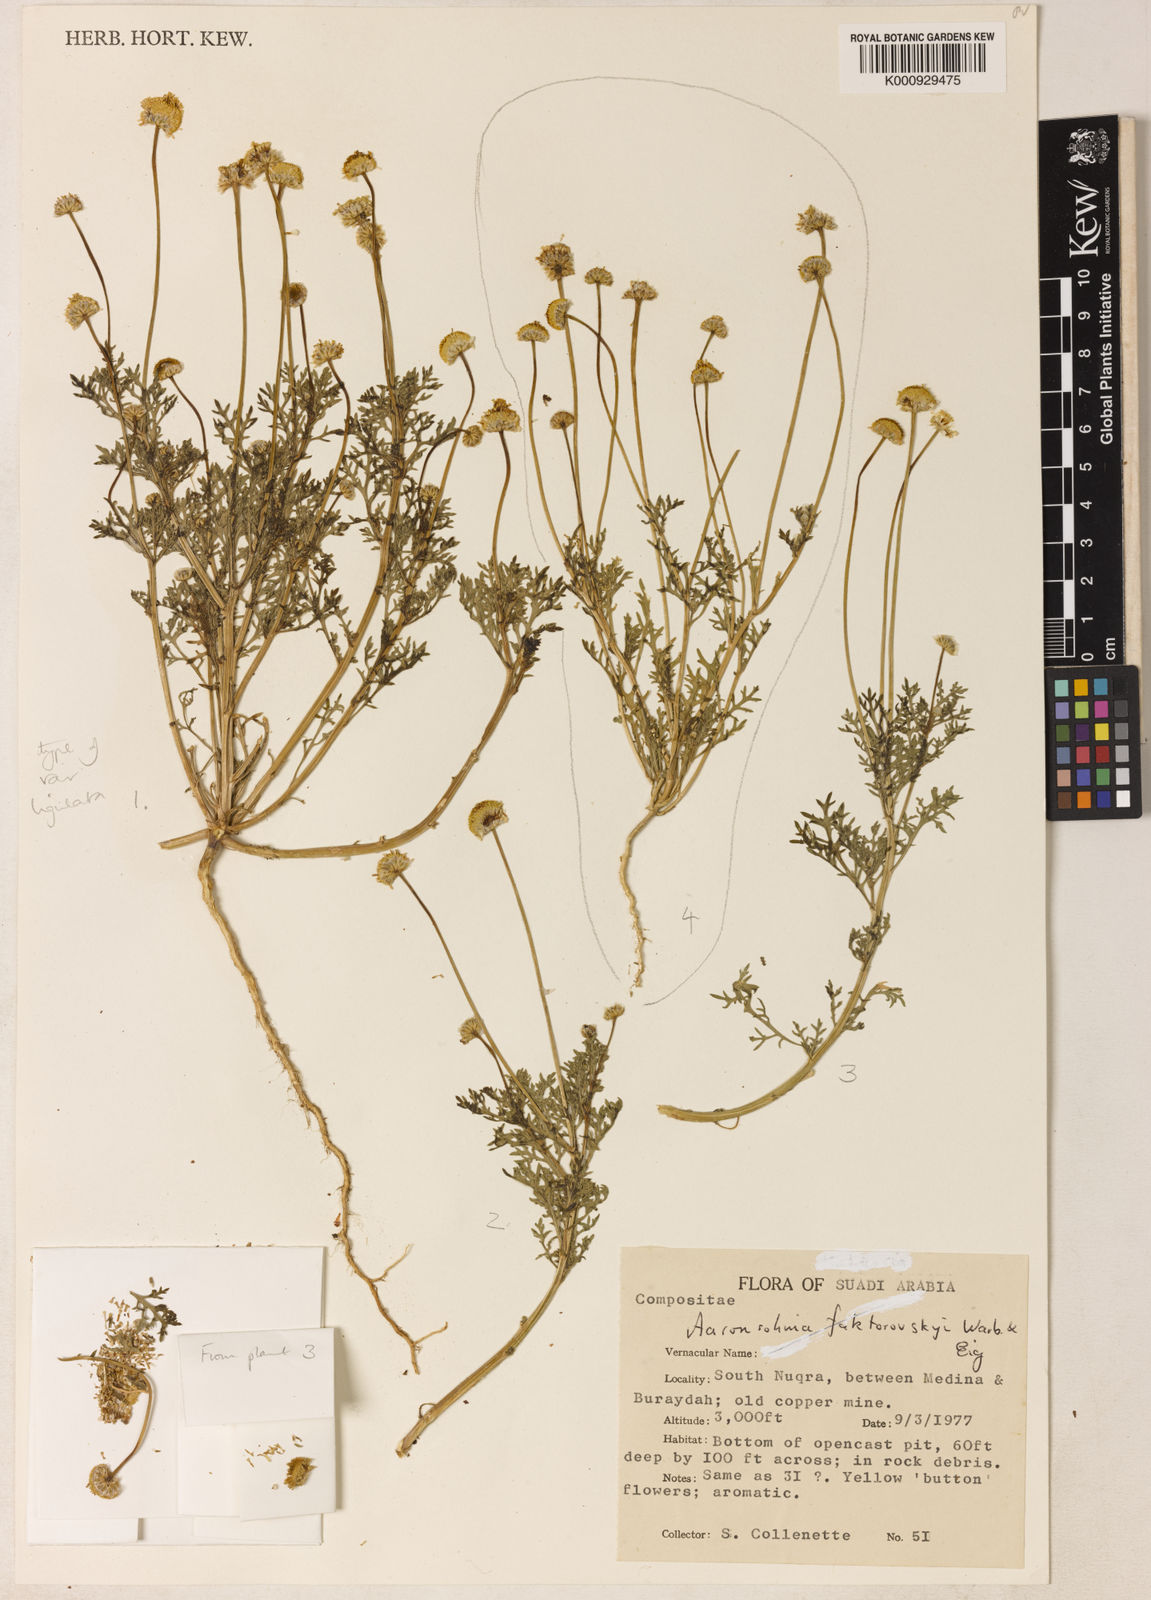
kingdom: Plantae
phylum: Tracheophyta
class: Magnoliopsida
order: Asterales
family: Asteraceae
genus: Otoglyphis
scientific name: Otoglyphis factorovskyi
